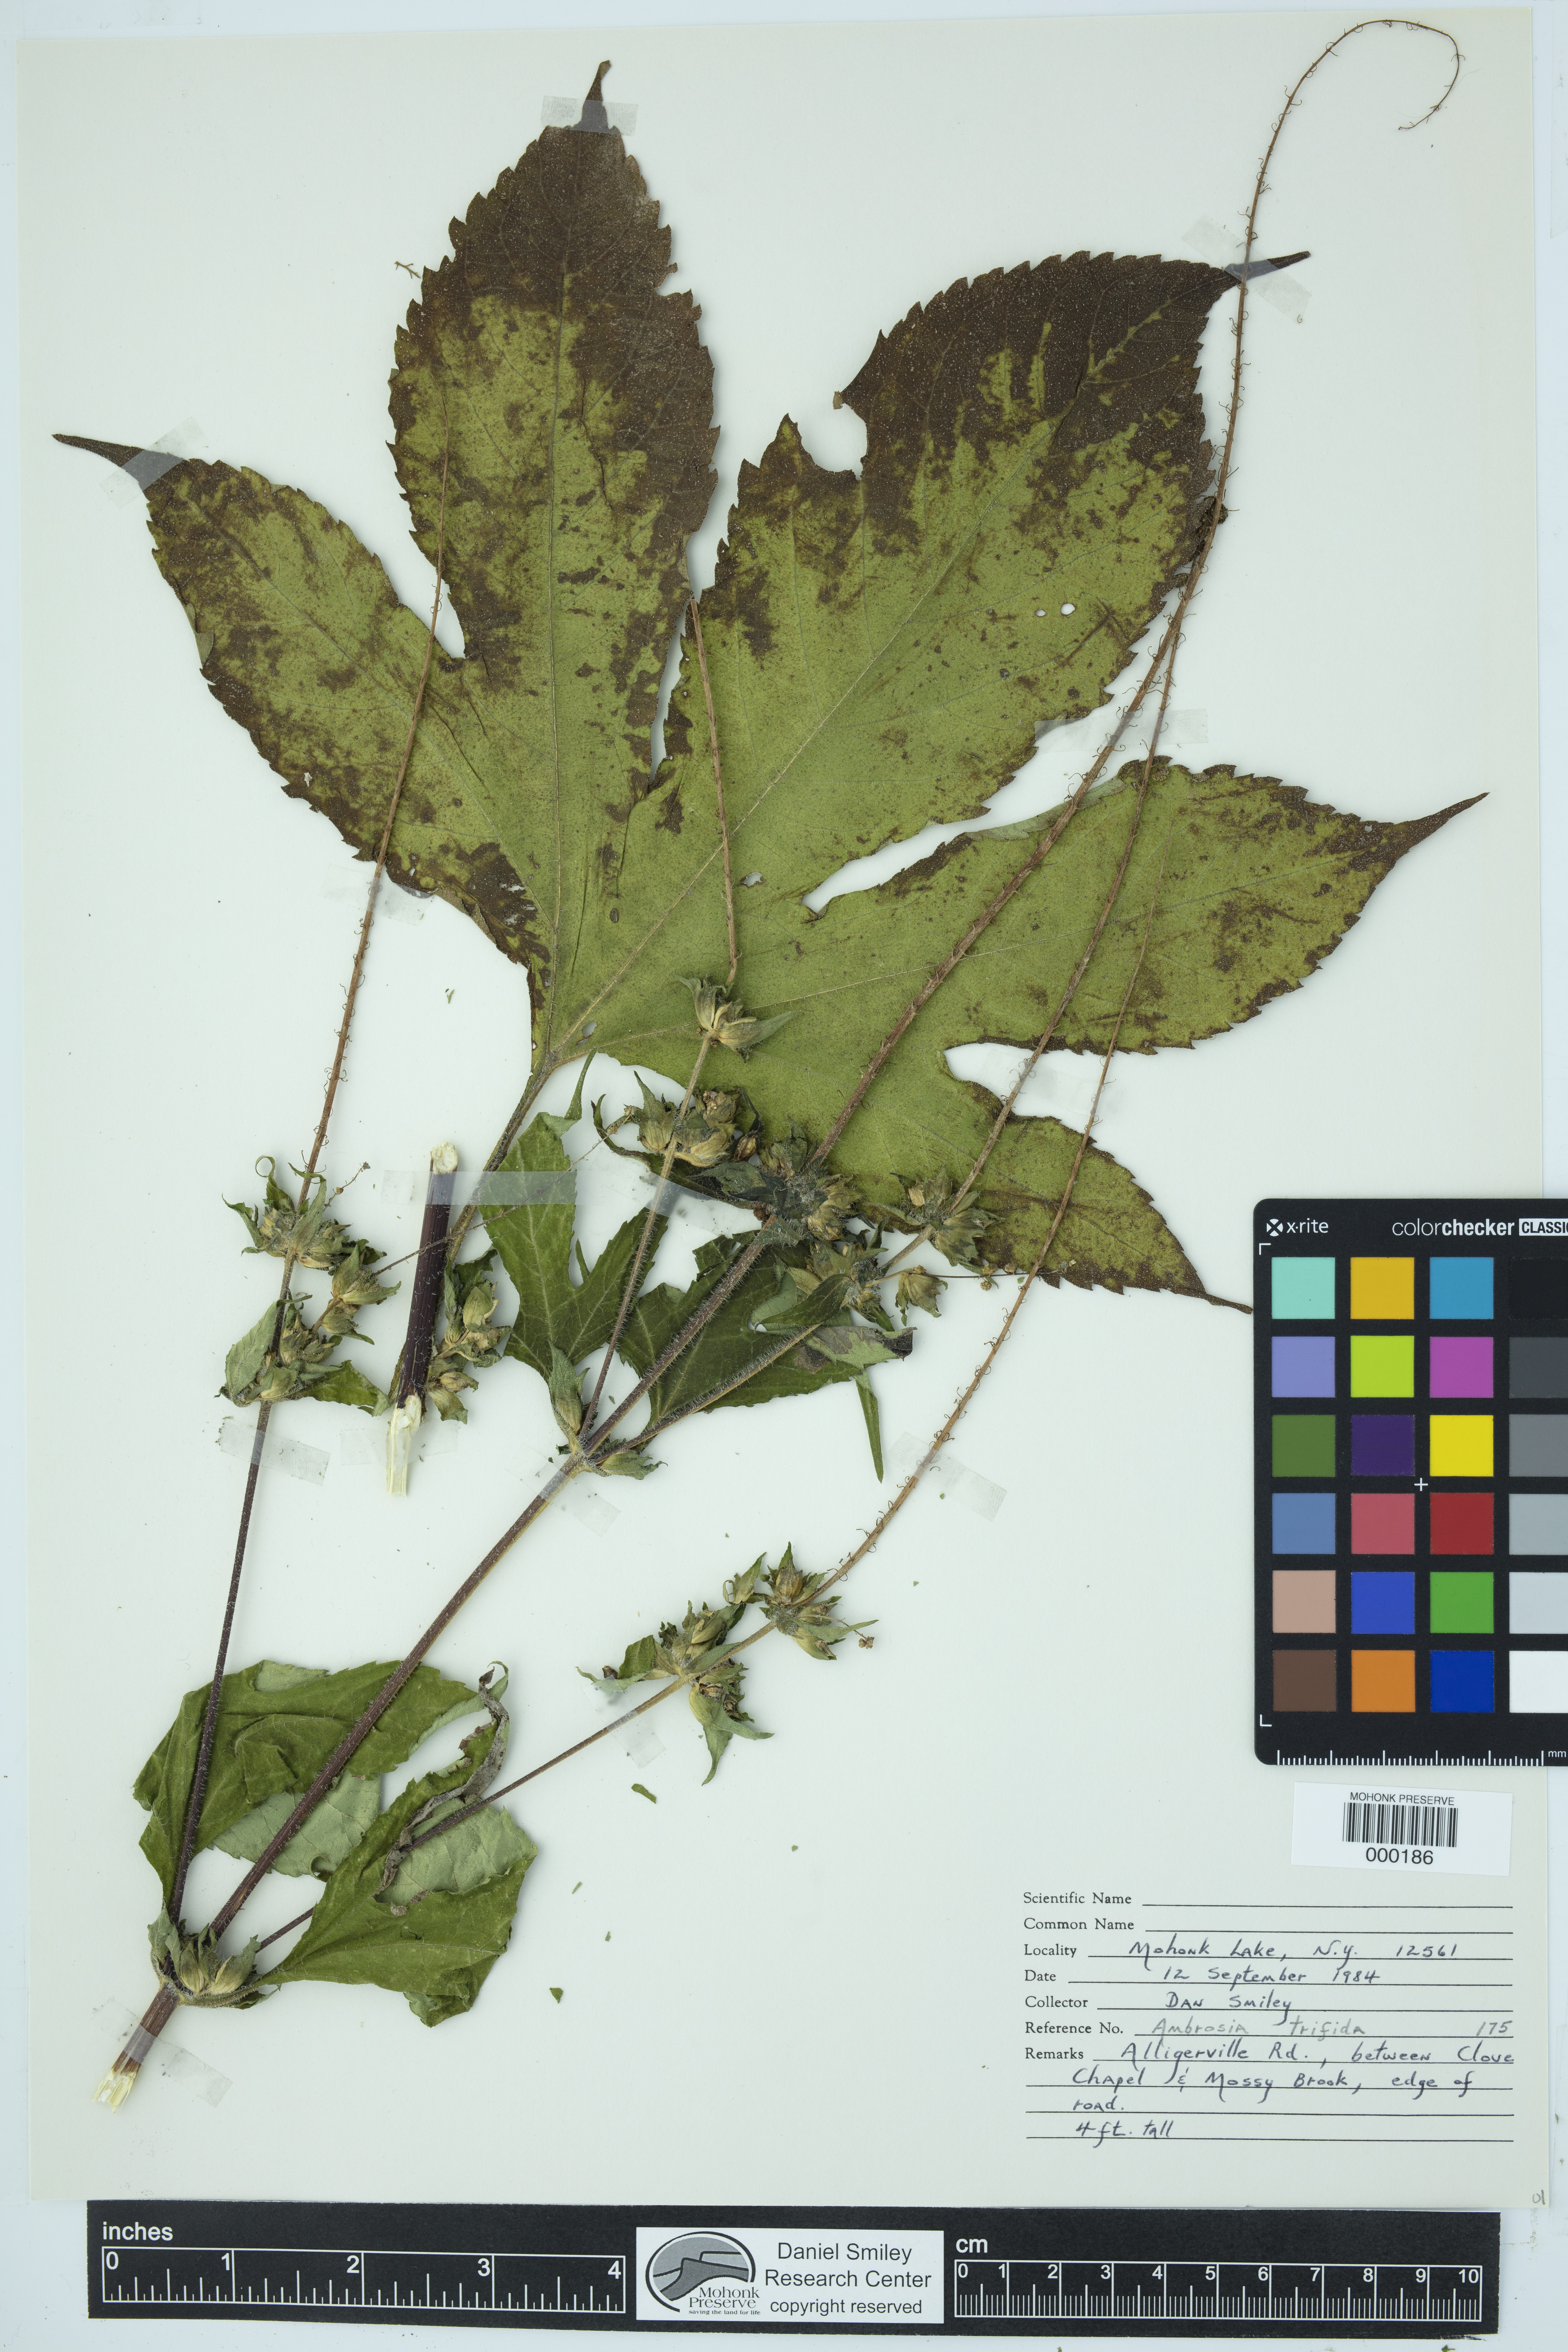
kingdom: Plantae
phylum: Tracheophyta
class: Magnoliopsida
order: Asterales
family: Asteraceae
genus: Ambrosia
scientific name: Ambrosia trifida
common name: Giant ragweed
